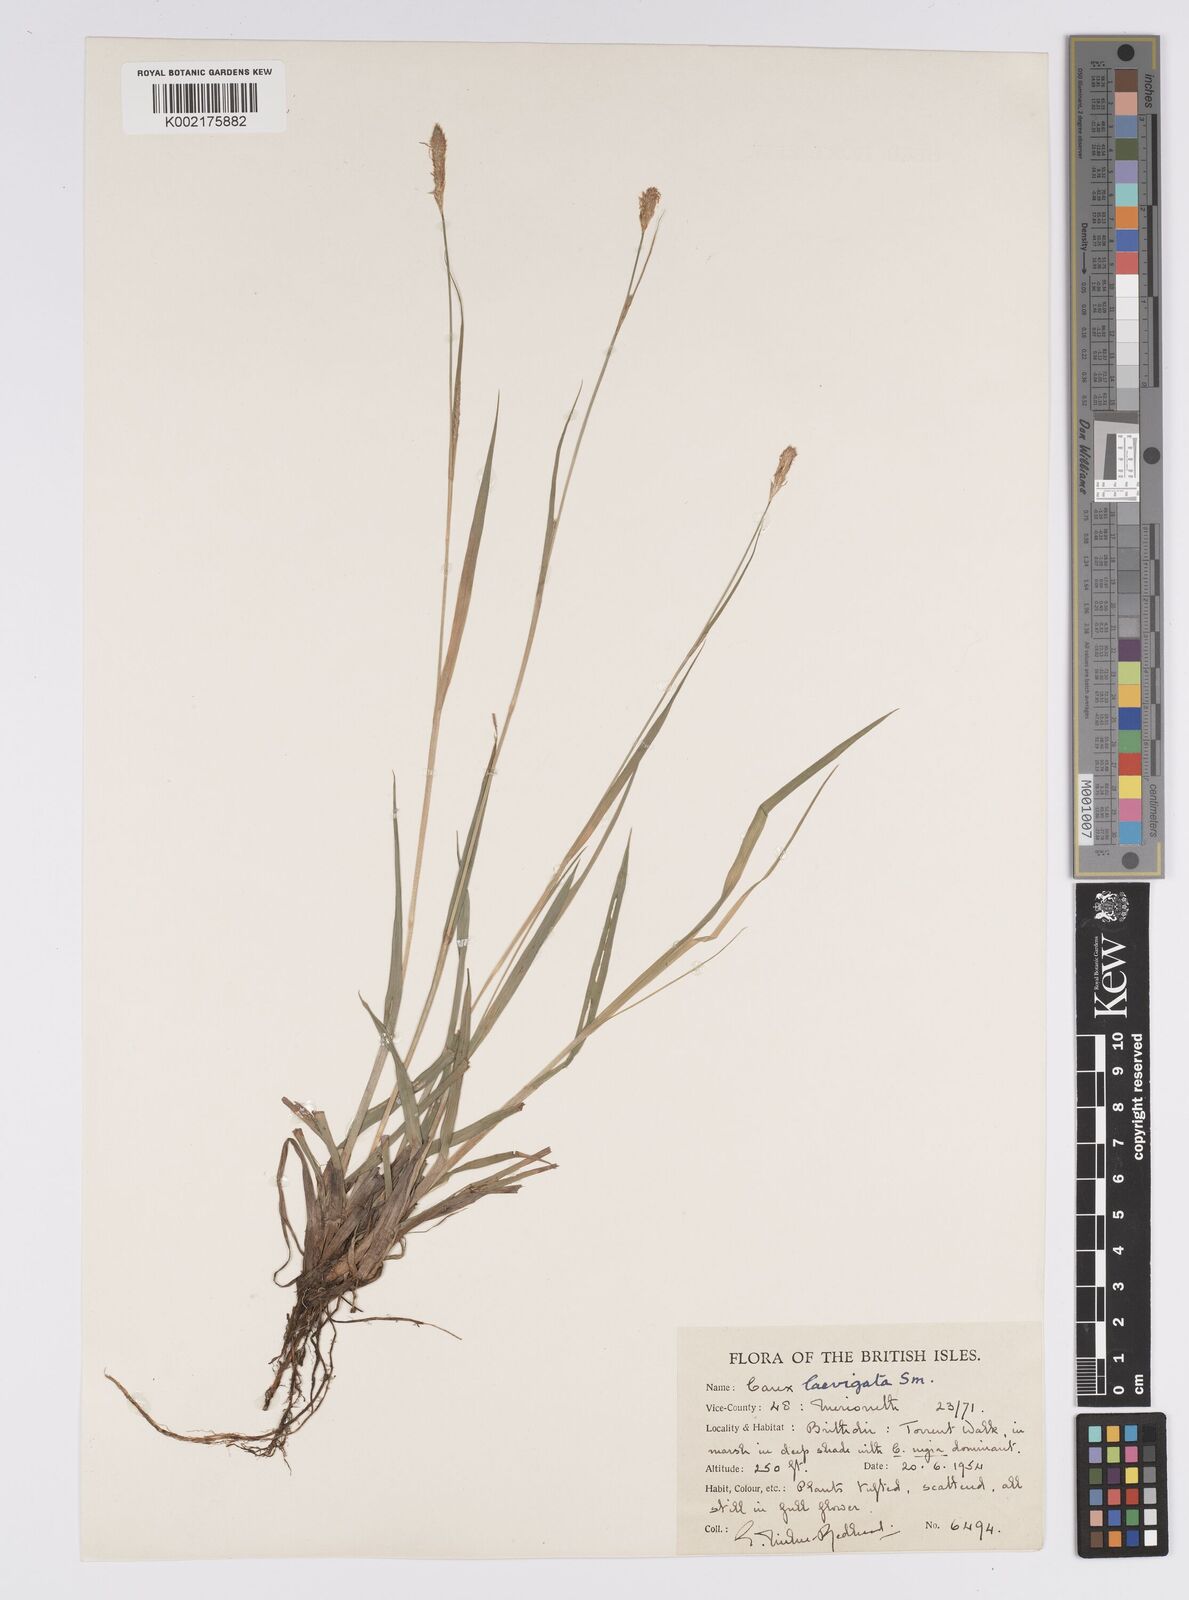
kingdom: Plantae
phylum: Tracheophyta
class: Liliopsida
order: Poales
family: Cyperaceae
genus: Carex
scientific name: Carex laevigata
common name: Smooth-stalked sedge
